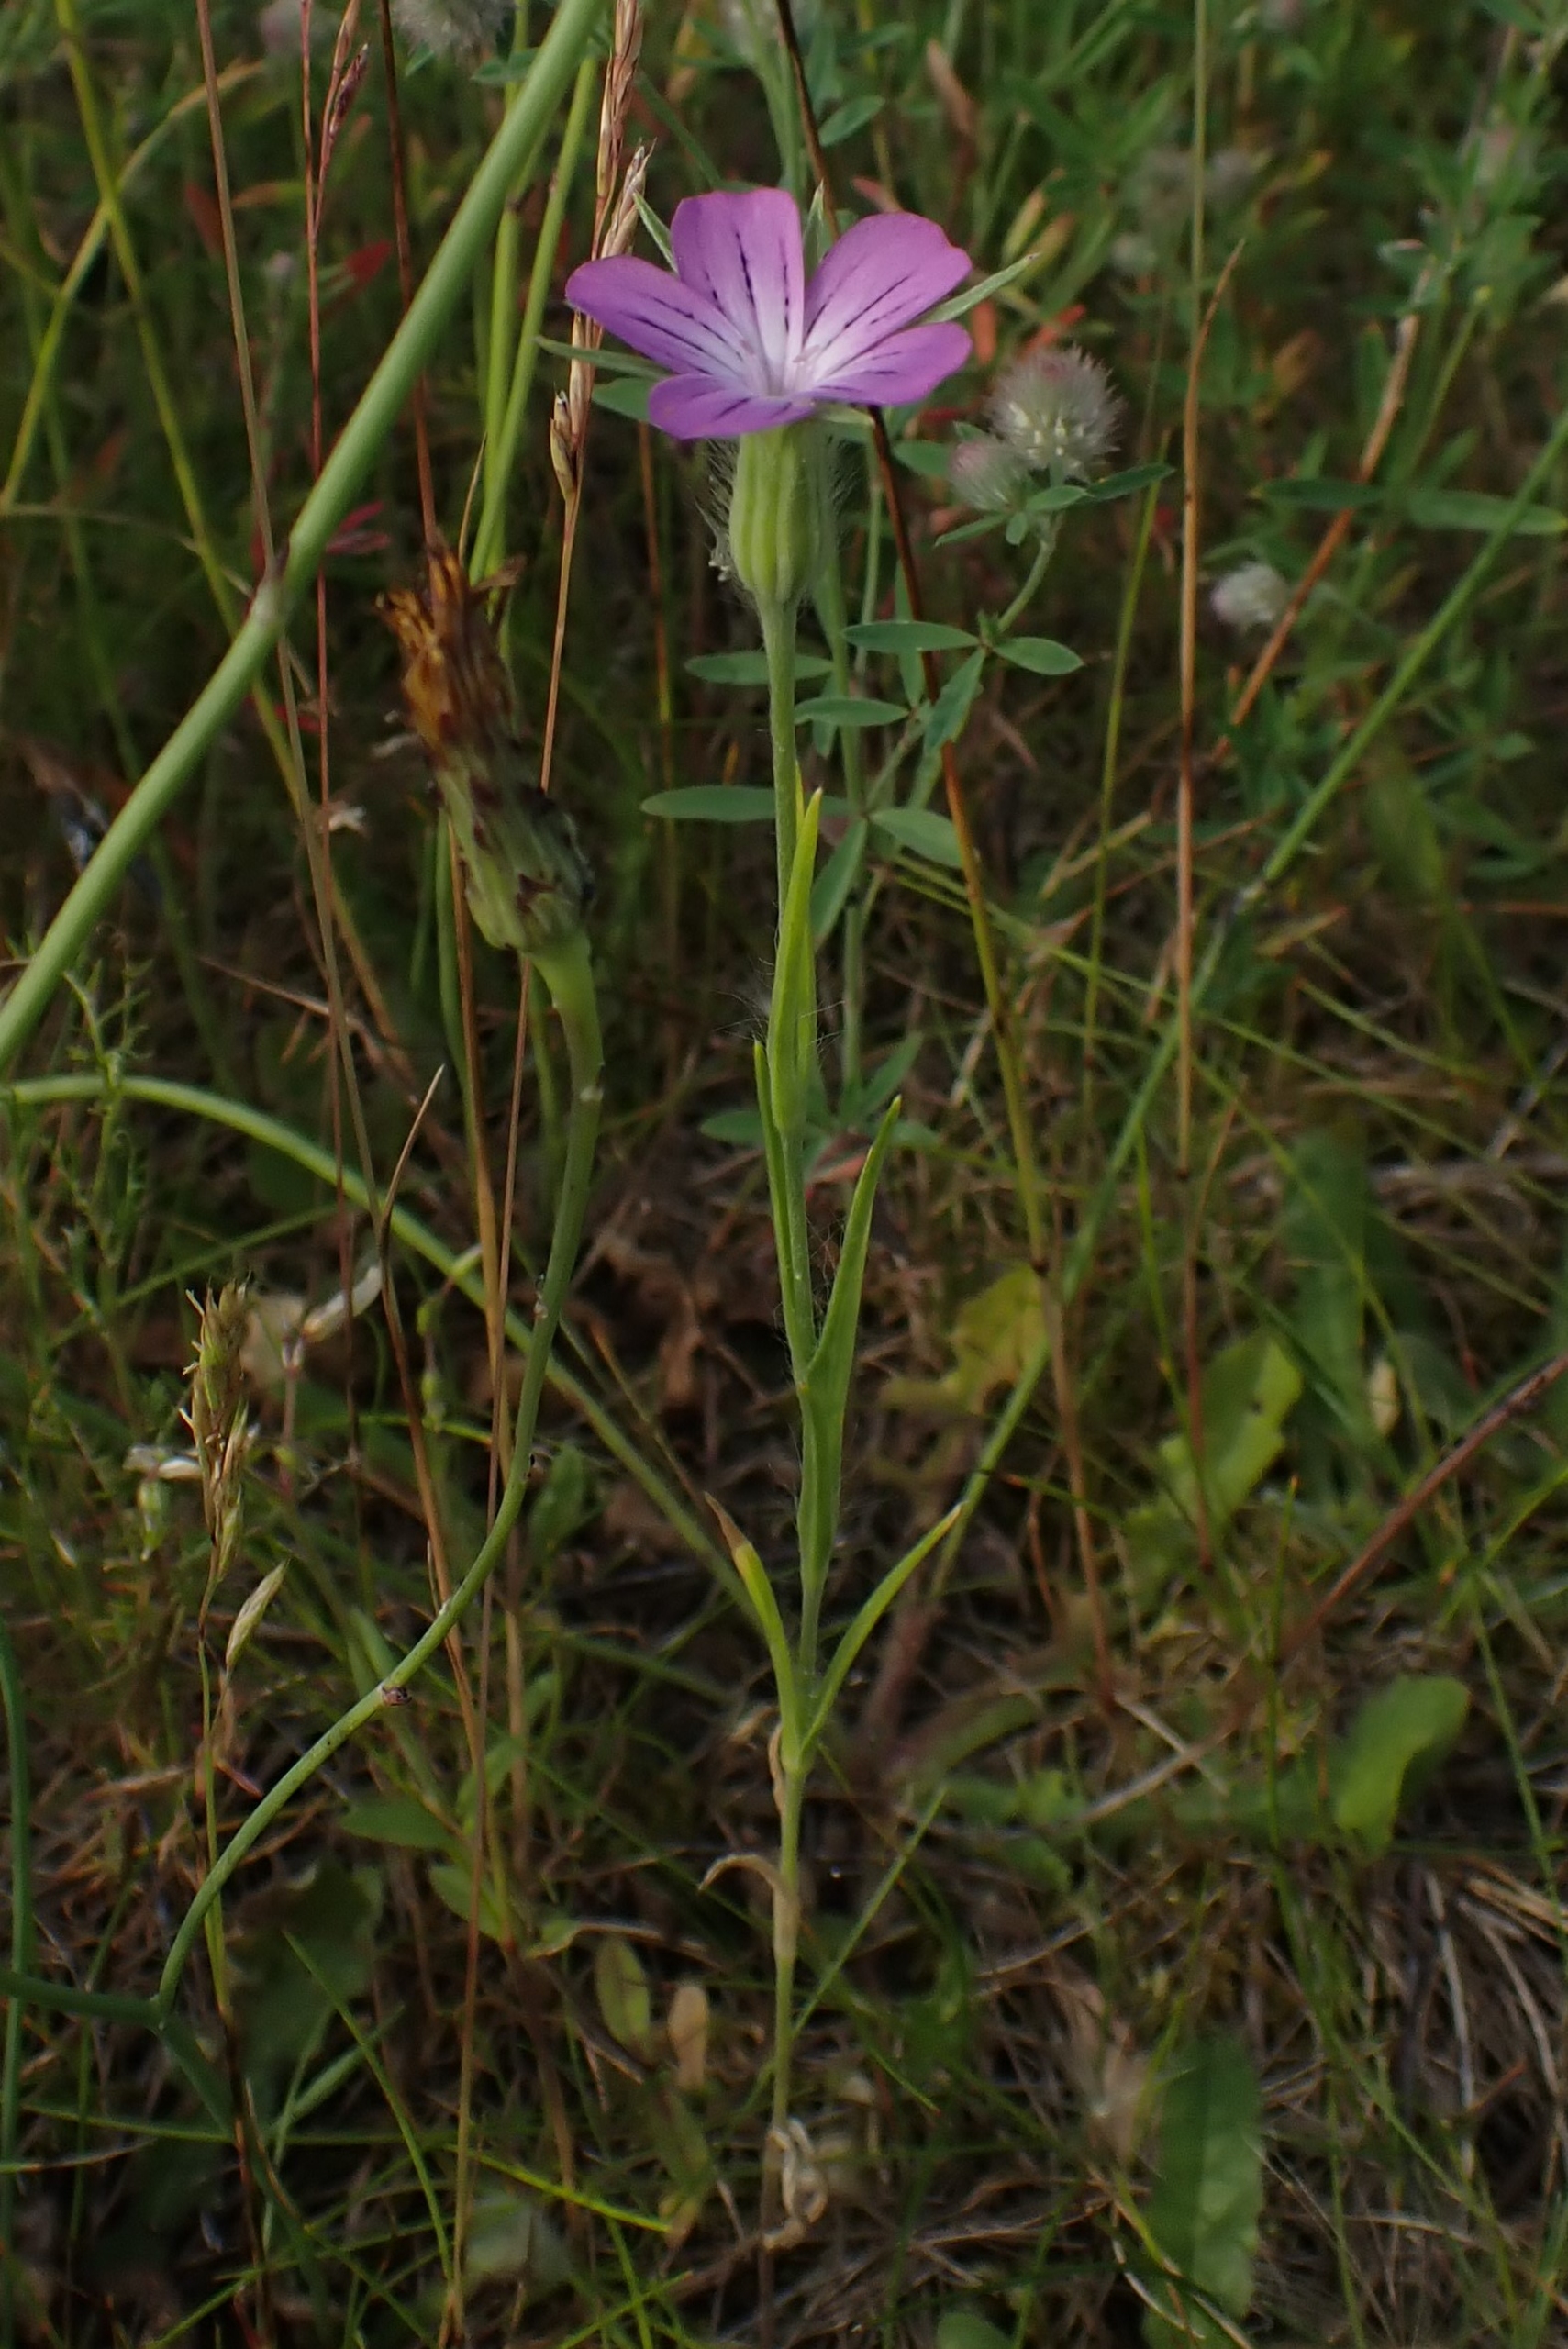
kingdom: Plantae
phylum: Tracheophyta
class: Magnoliopsida
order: Caryophyllales
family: Caryophyllaceae
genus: Agrostemma
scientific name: Agrostemma githago
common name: Klinte
